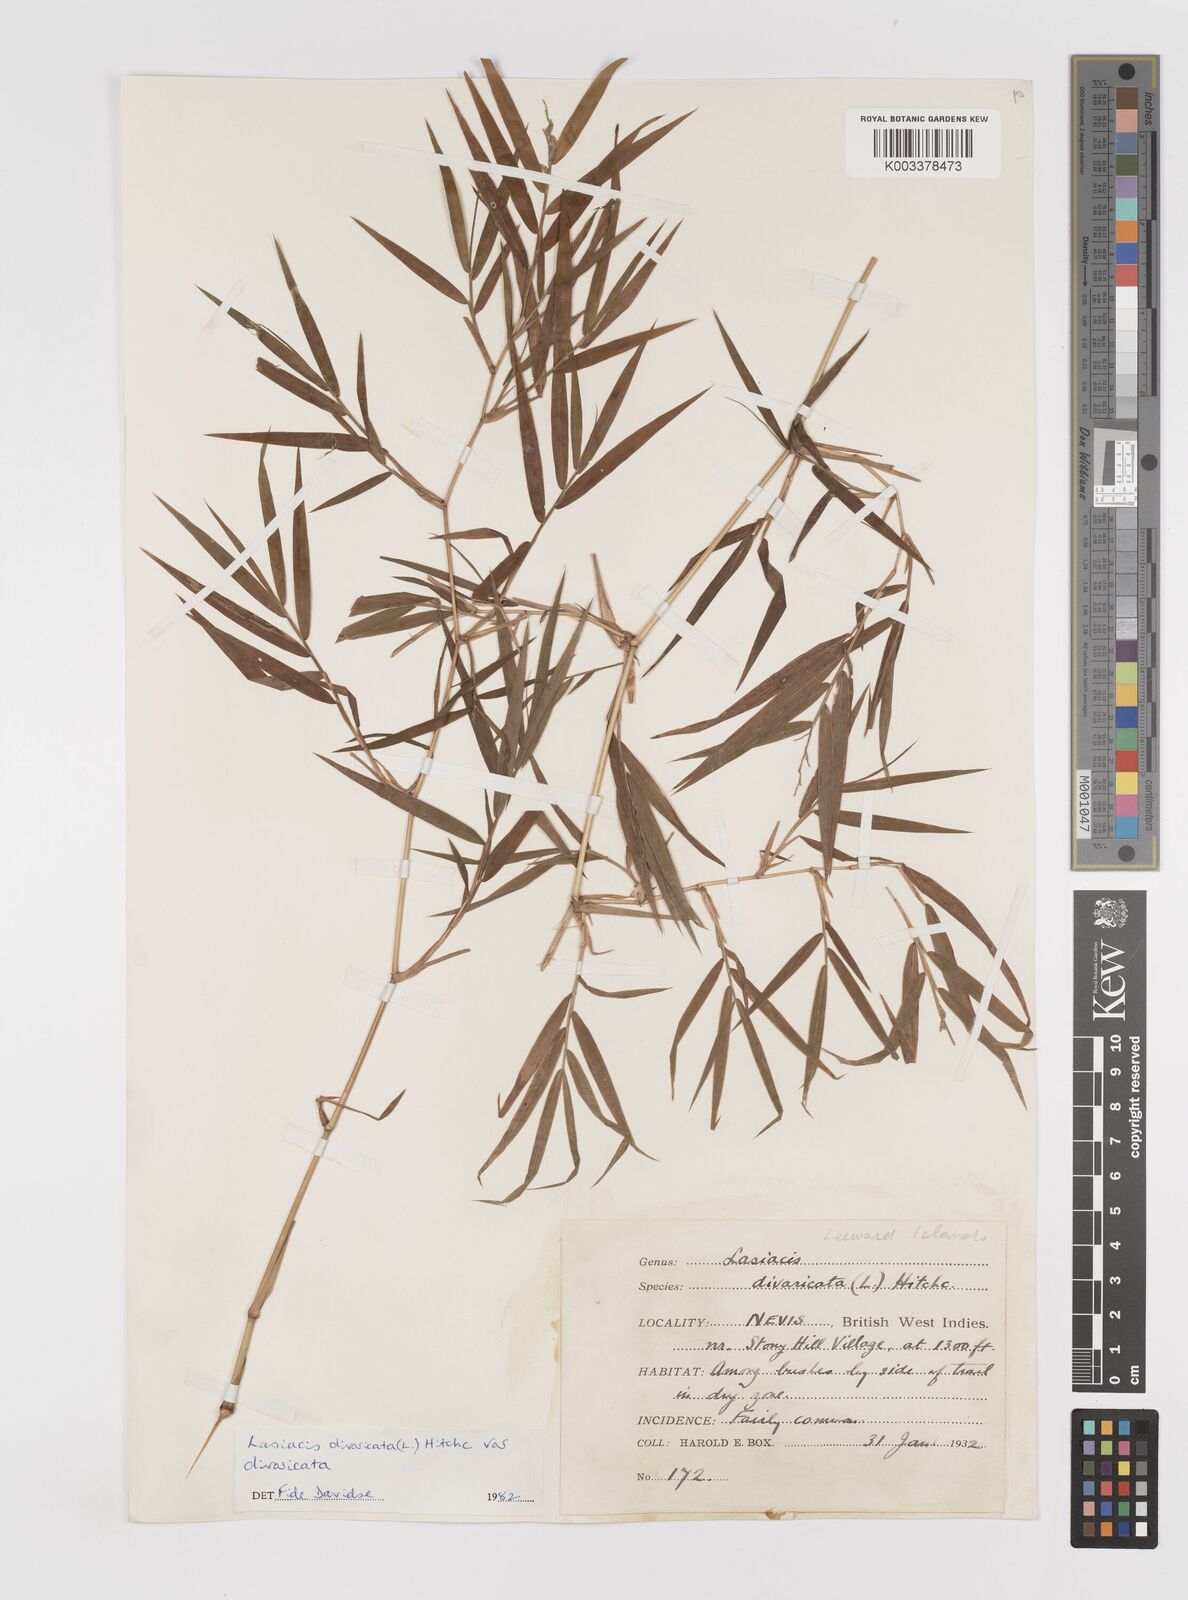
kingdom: Plantae
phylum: Tracheophyta
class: Liliopsida
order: Poales
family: Poaceae
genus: Lasiacis
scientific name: Lasiacis divaricata
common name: Smallcane
